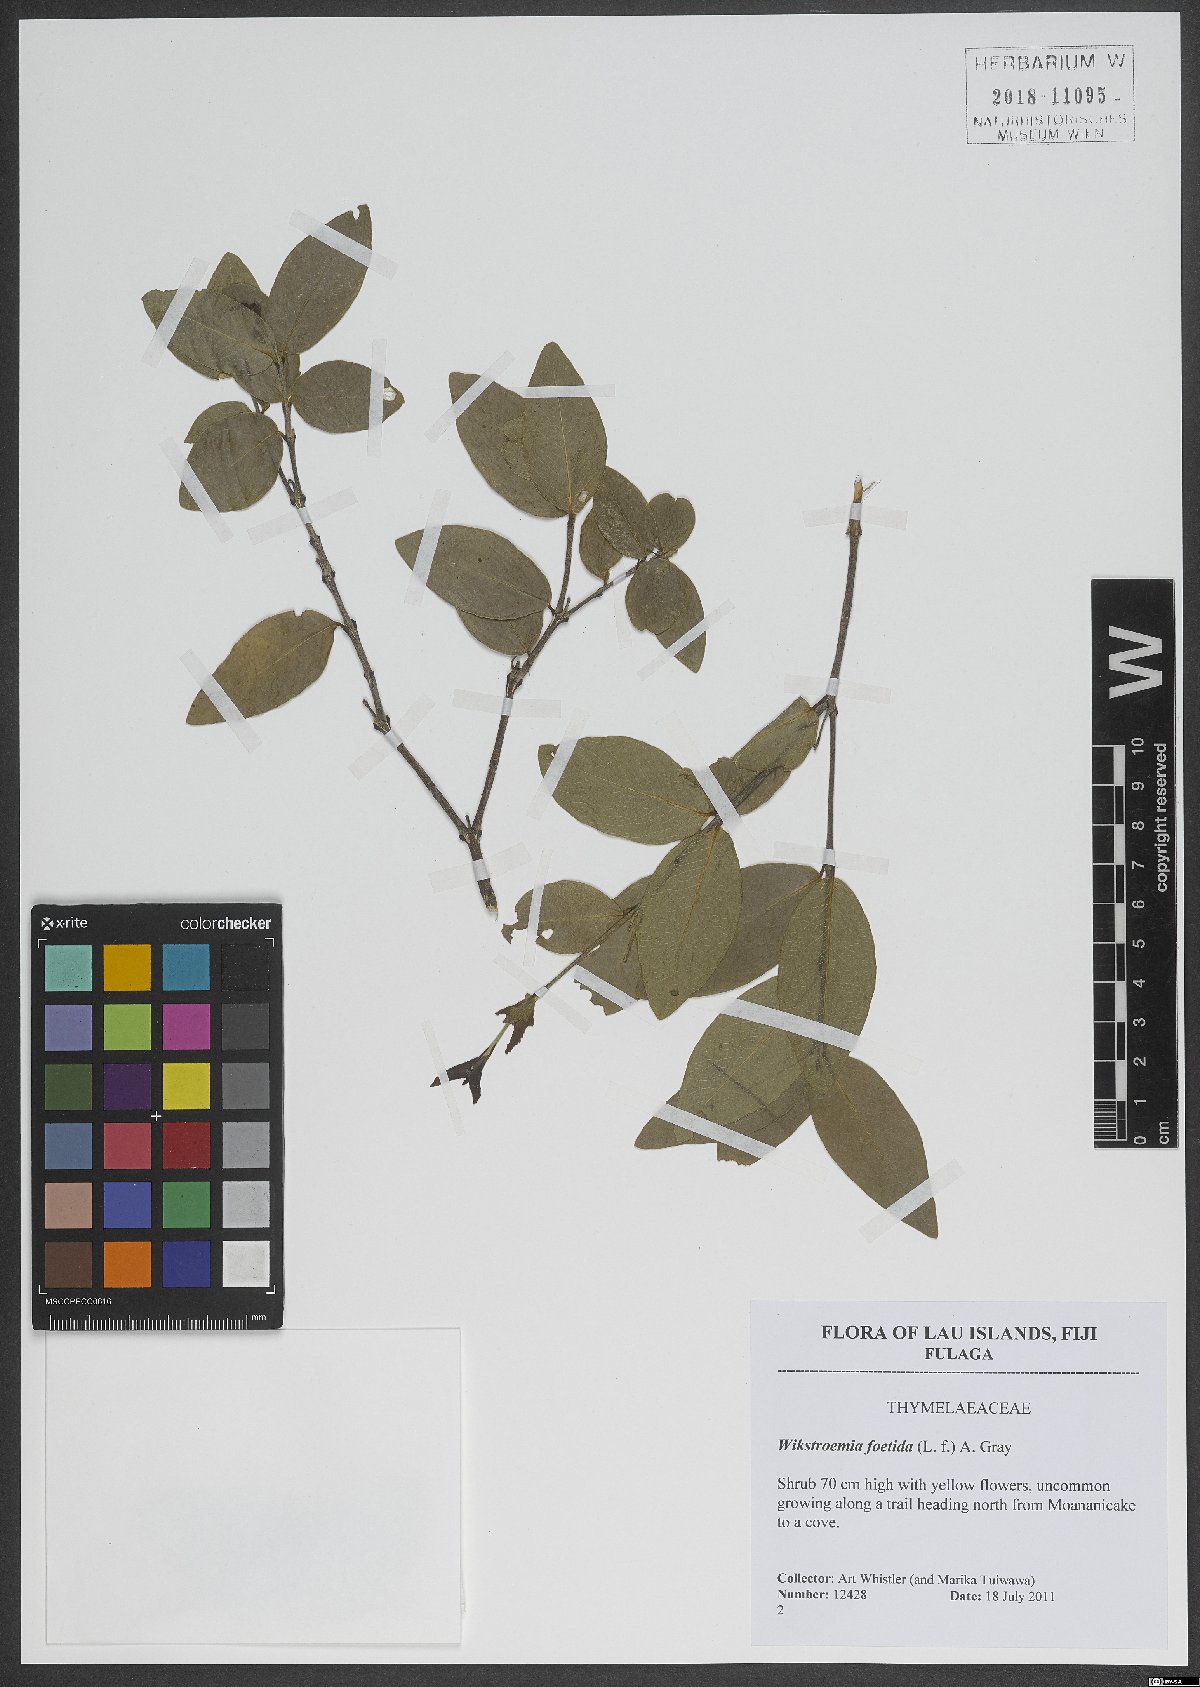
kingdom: Plantae
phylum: Tracheophyta
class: Magnoliopsida
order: Gentianales
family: Rubiaceae
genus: Ixora
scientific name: Ixora foetida
